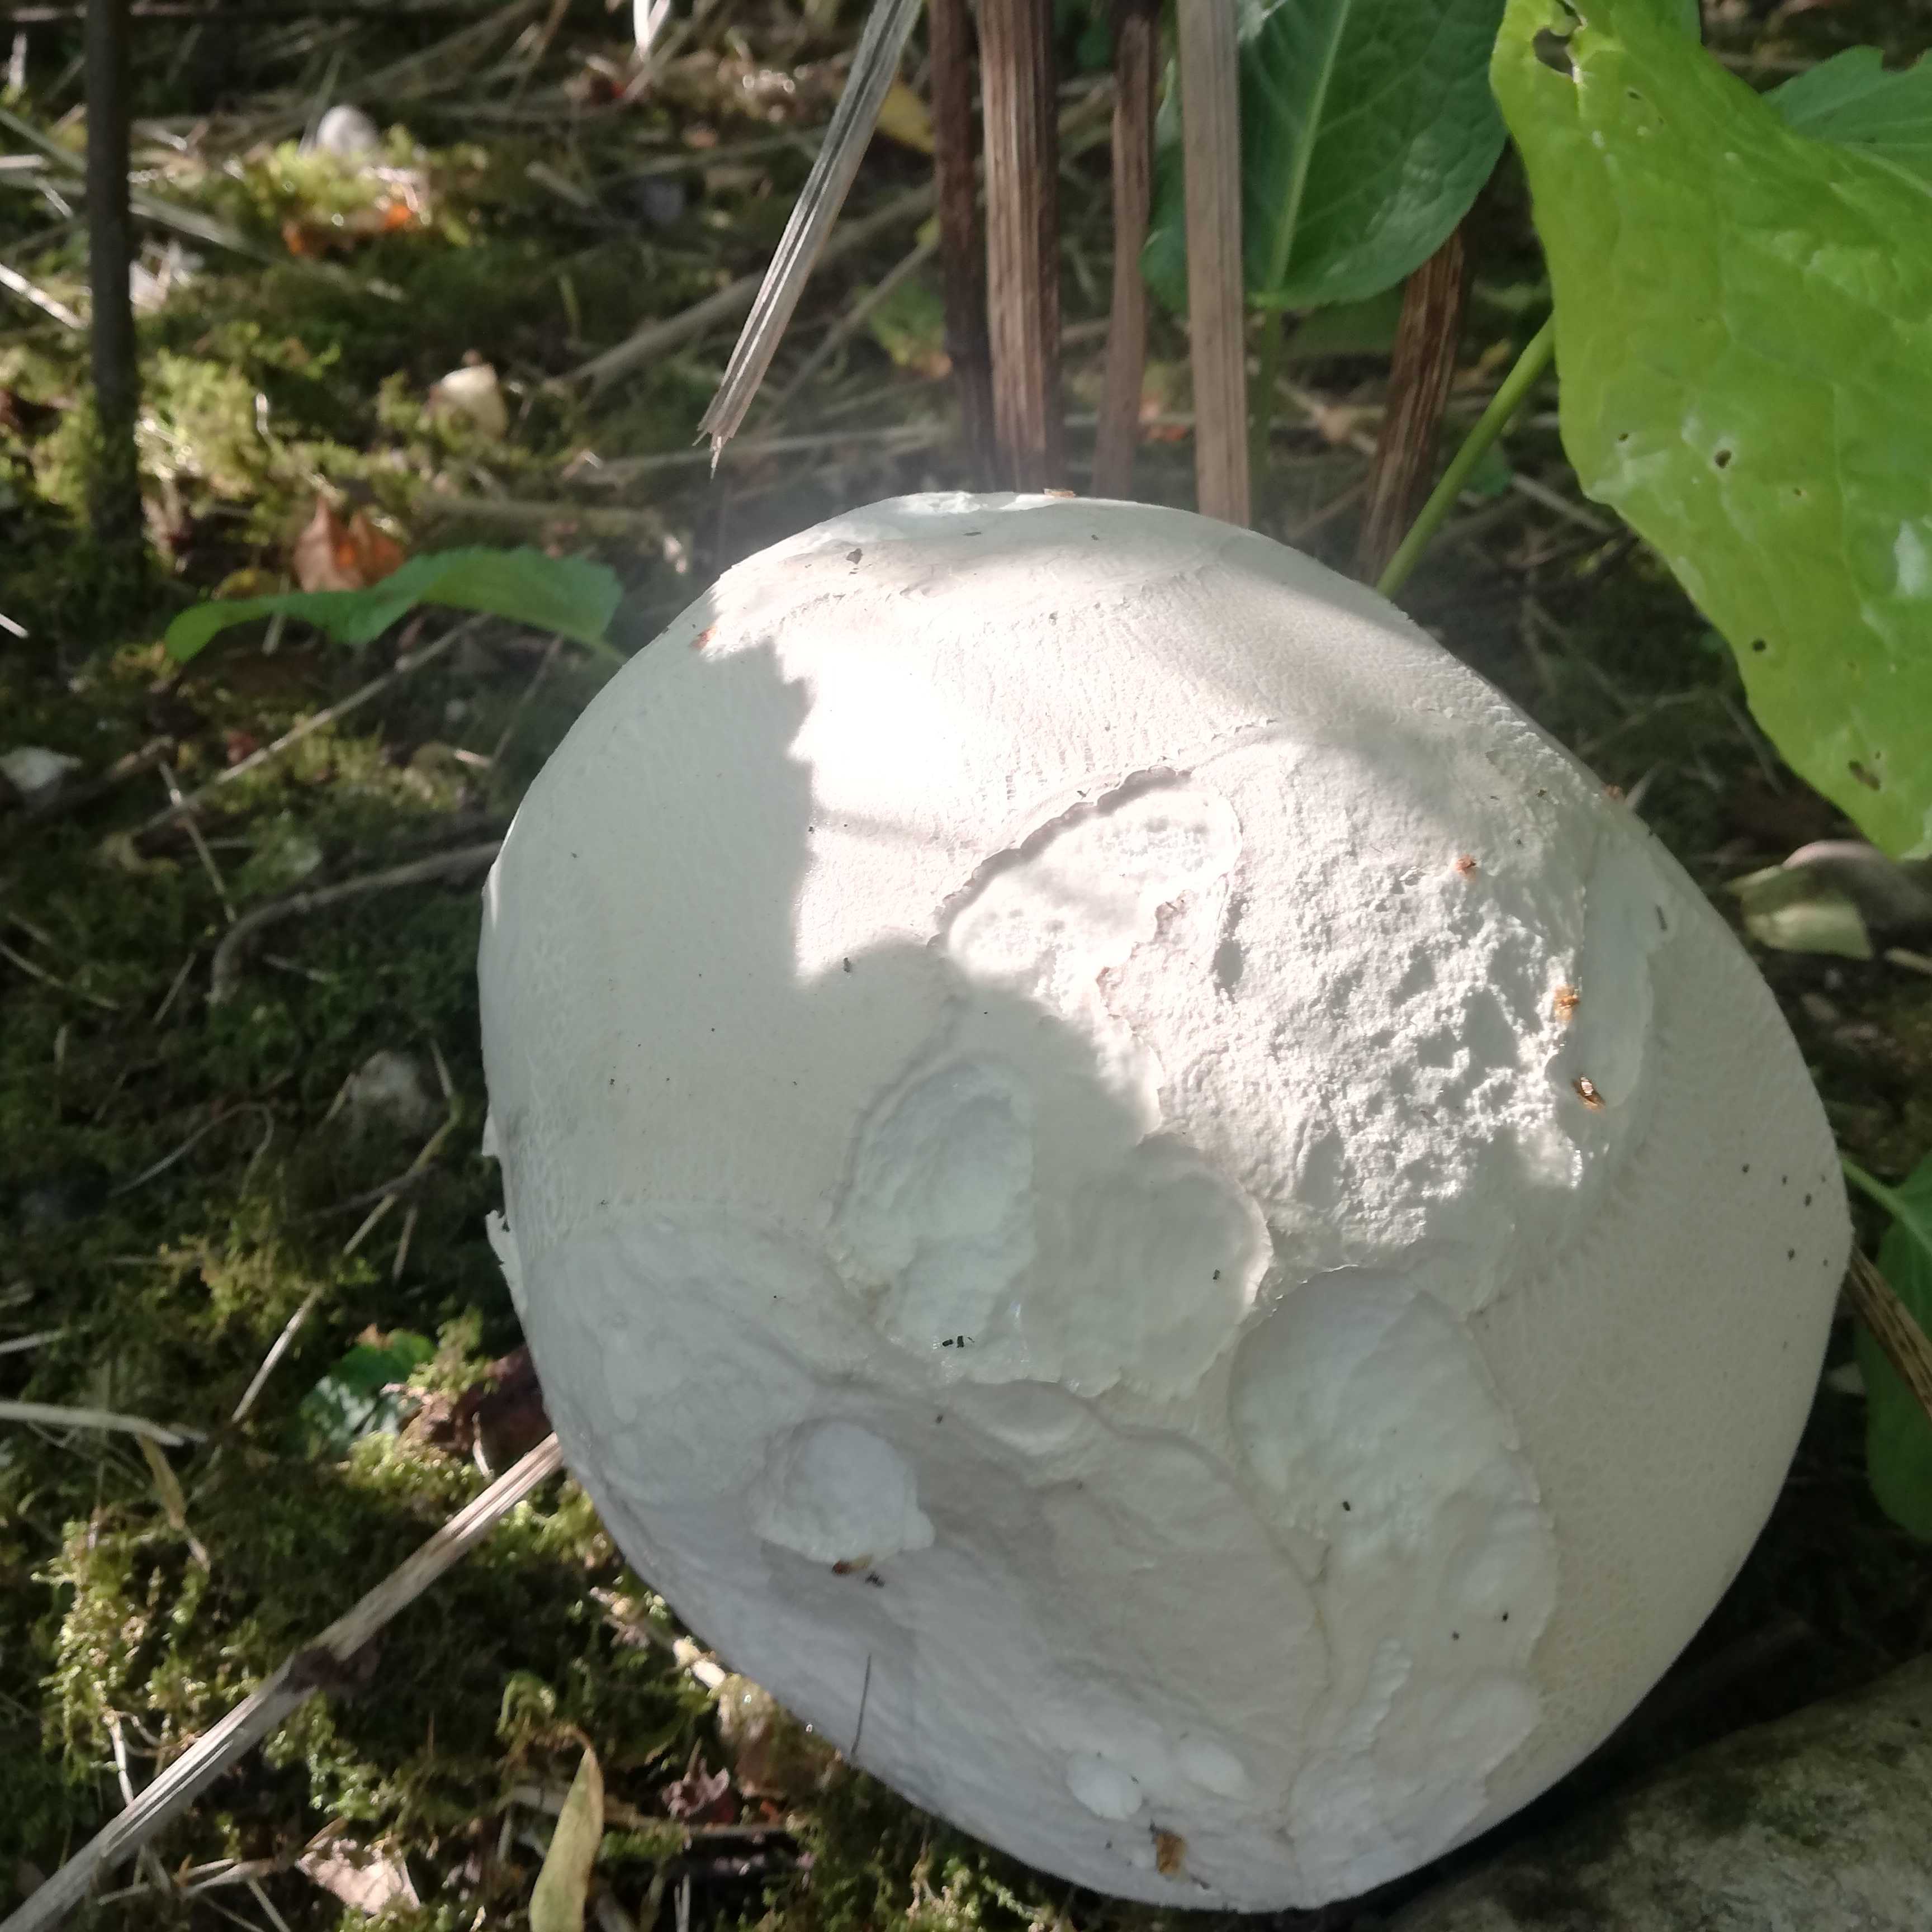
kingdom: Fungi
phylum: Basidiomycota
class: Agaricomycetes
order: Agaricales
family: Lycoperdaceae
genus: Calvatia
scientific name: Calvatia gigantea
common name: kæmpestøvbold
